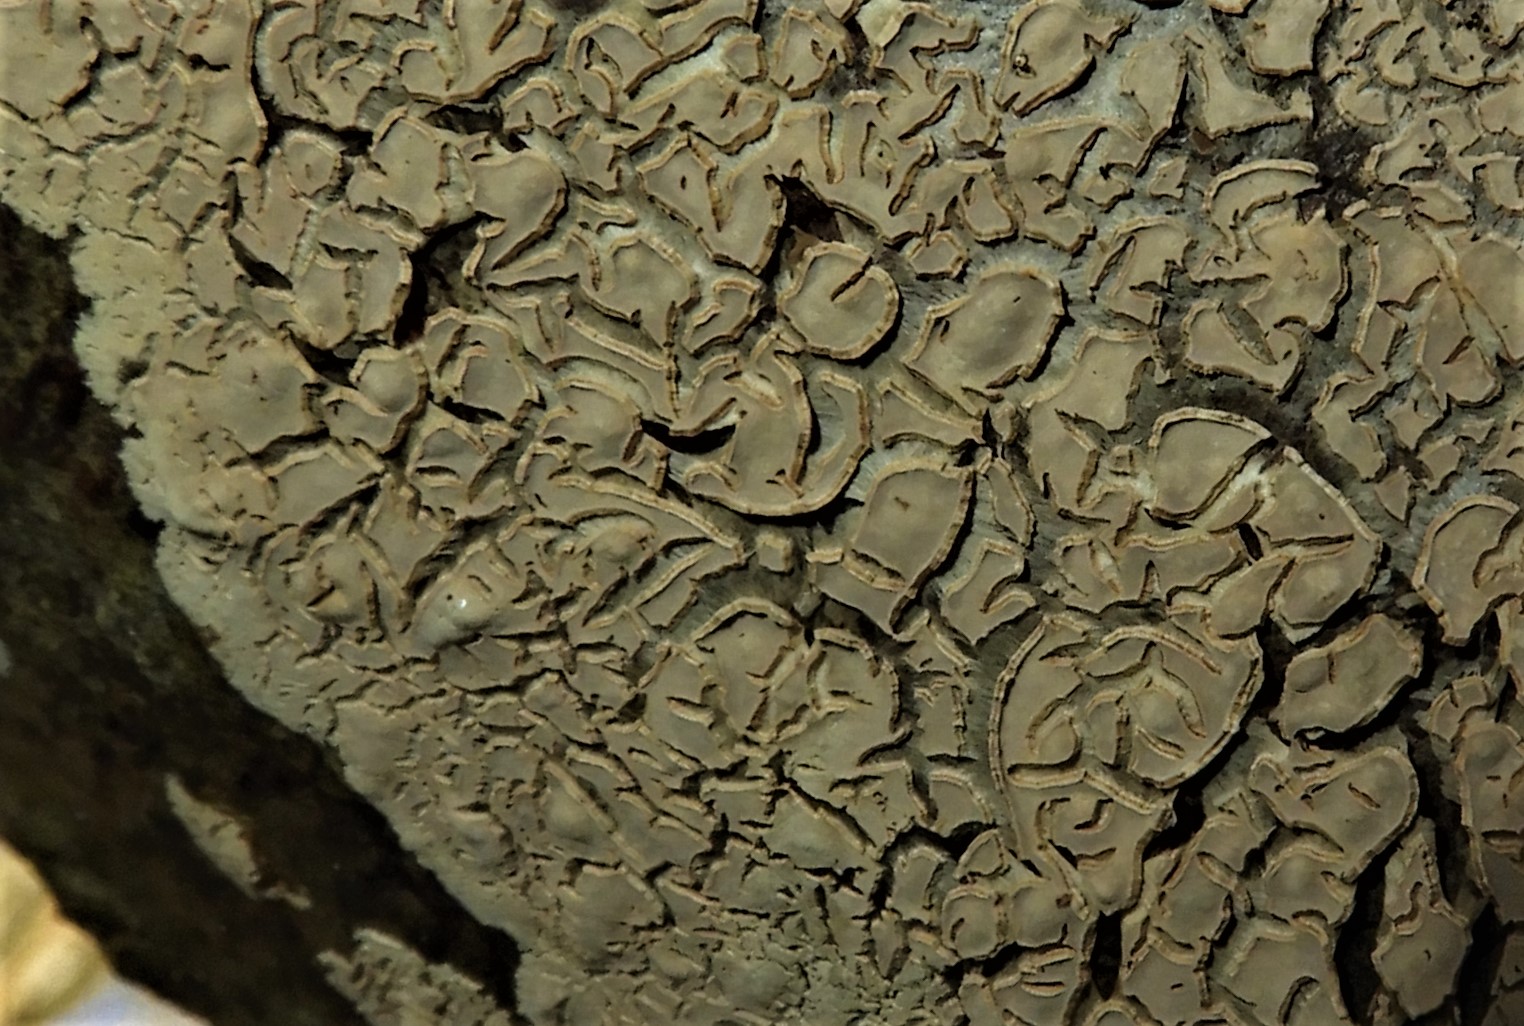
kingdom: Fungi
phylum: Basidiomycota
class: Agaricomycetes
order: Agaricales
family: Physalacriaceae
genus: Cylindrobasidium
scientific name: Cylindrobasidium evolvens
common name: sprækkehinde
